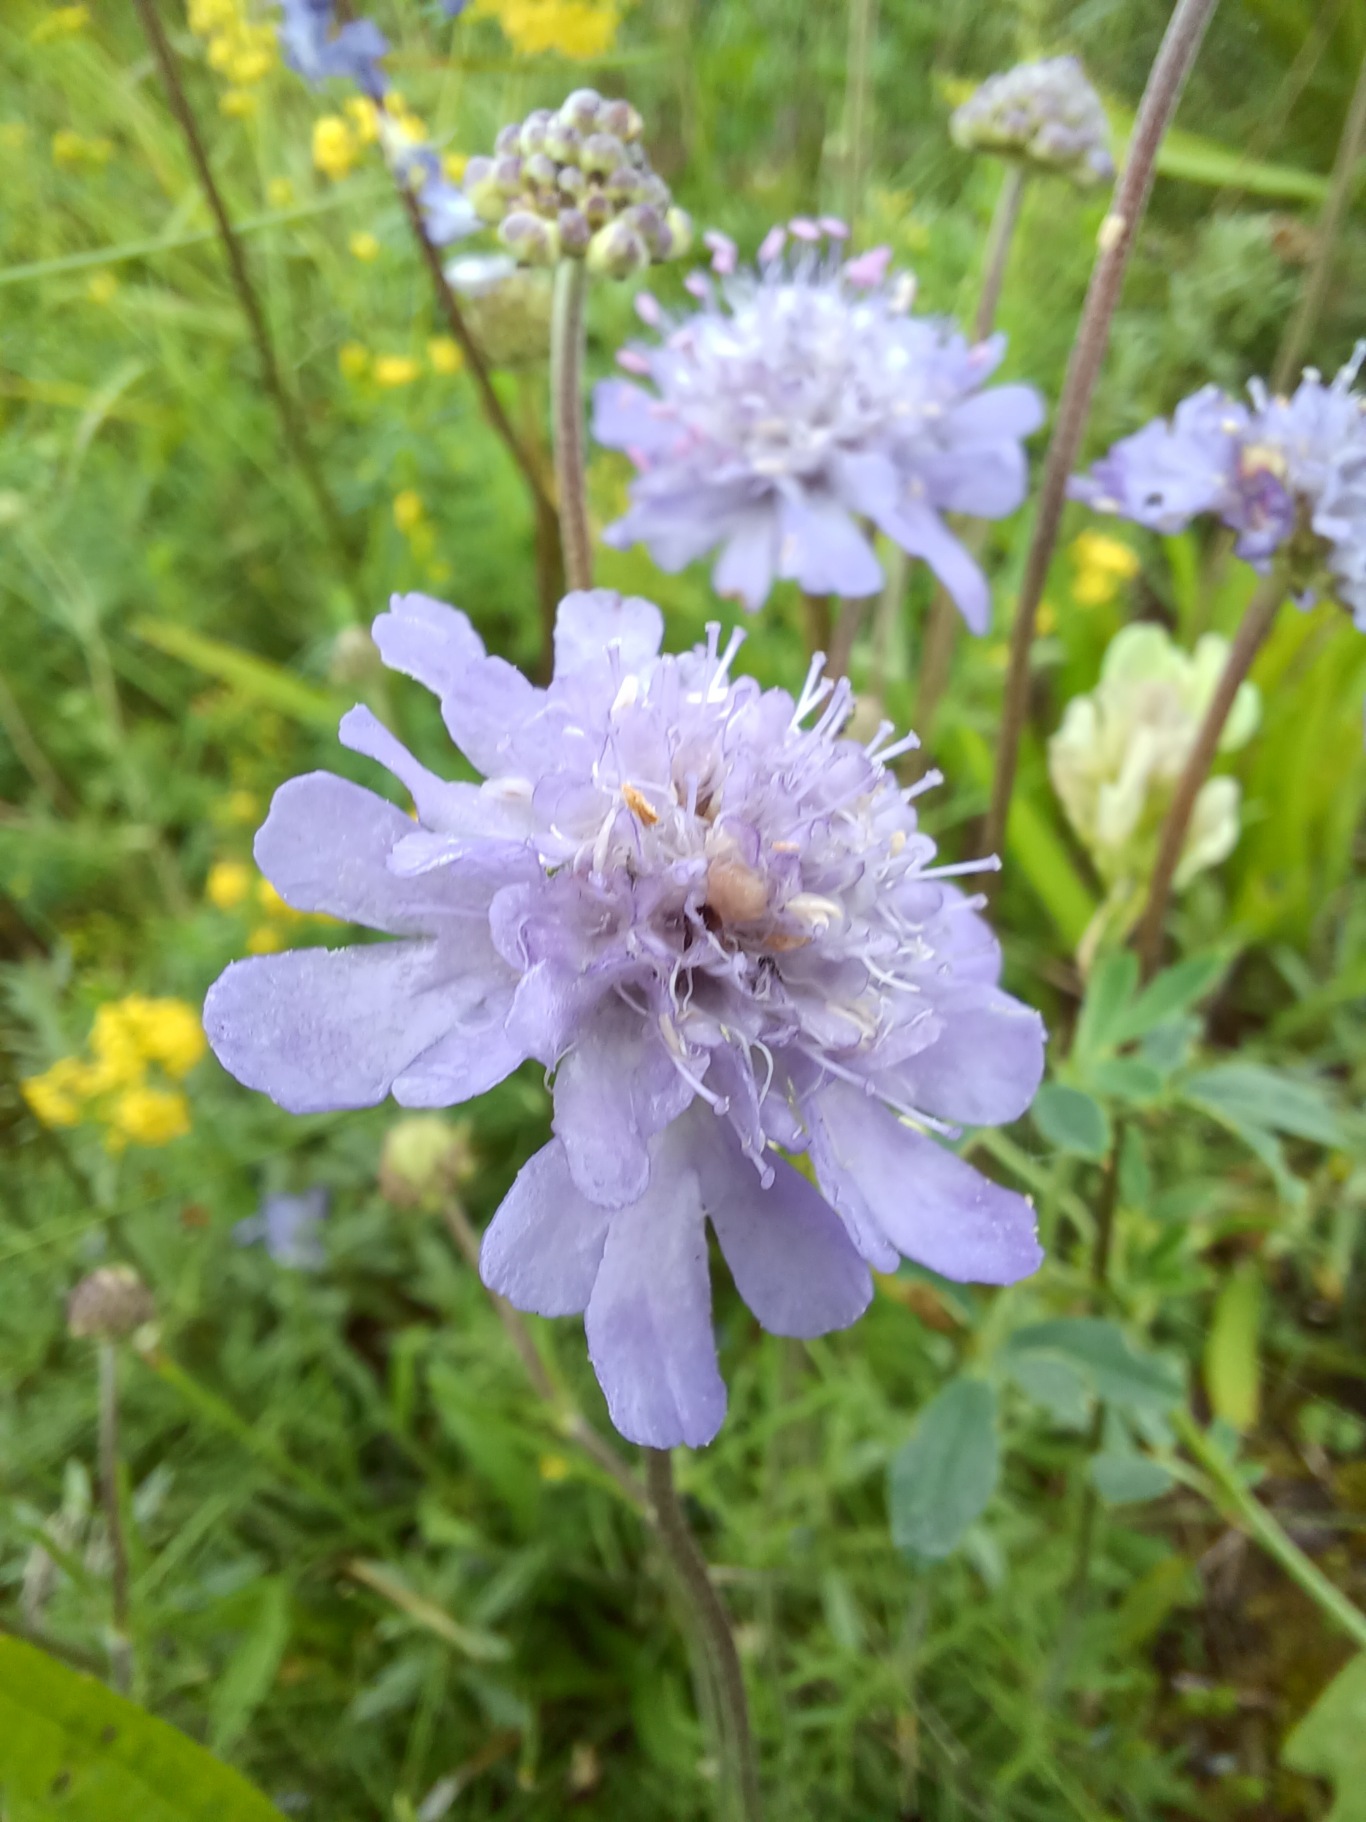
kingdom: Plantae
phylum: Tracheophyta
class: Magnoliopsida
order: Dipsacales
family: Caprifoliaceae
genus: Scabiosa
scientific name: Scabiosa canescens
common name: Vellugtende skabiose
